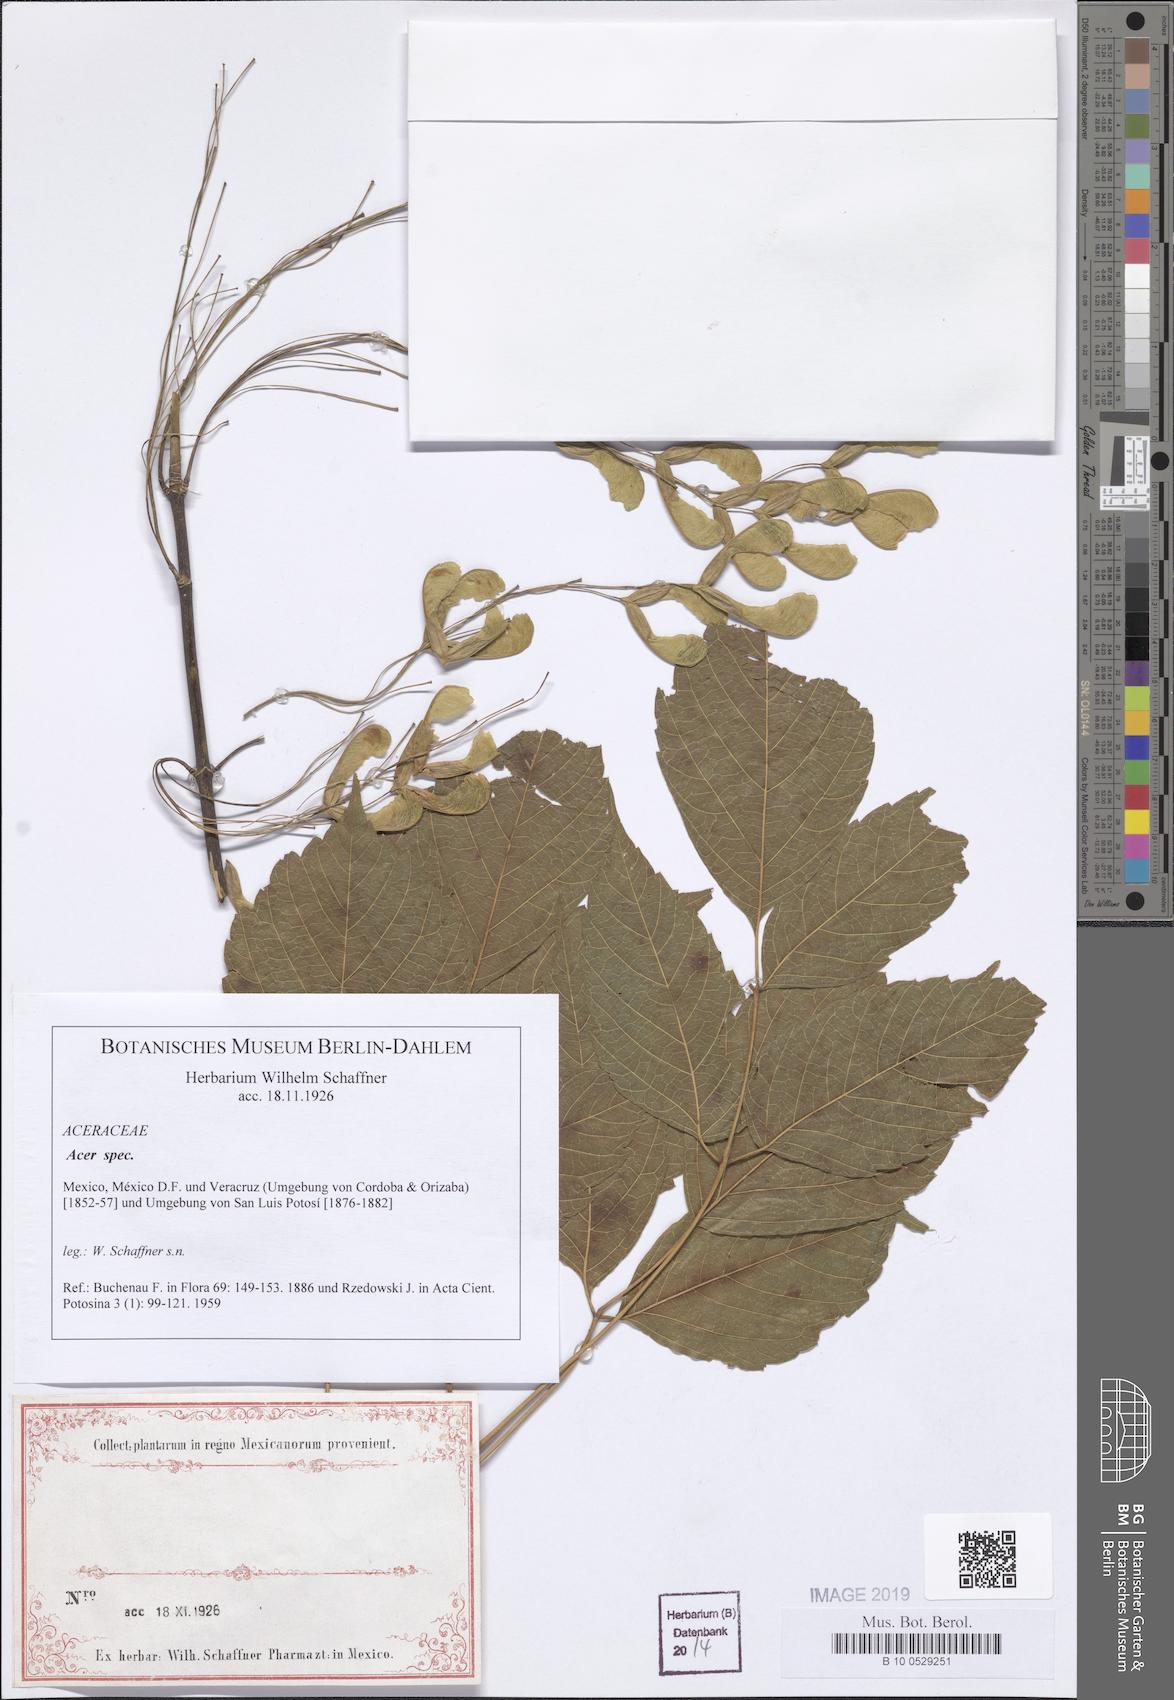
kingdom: Plantae
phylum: Tracheophyta
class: Magnoliopsida
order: Sapindales
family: Sapindaceae
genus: Acer
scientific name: Acer
